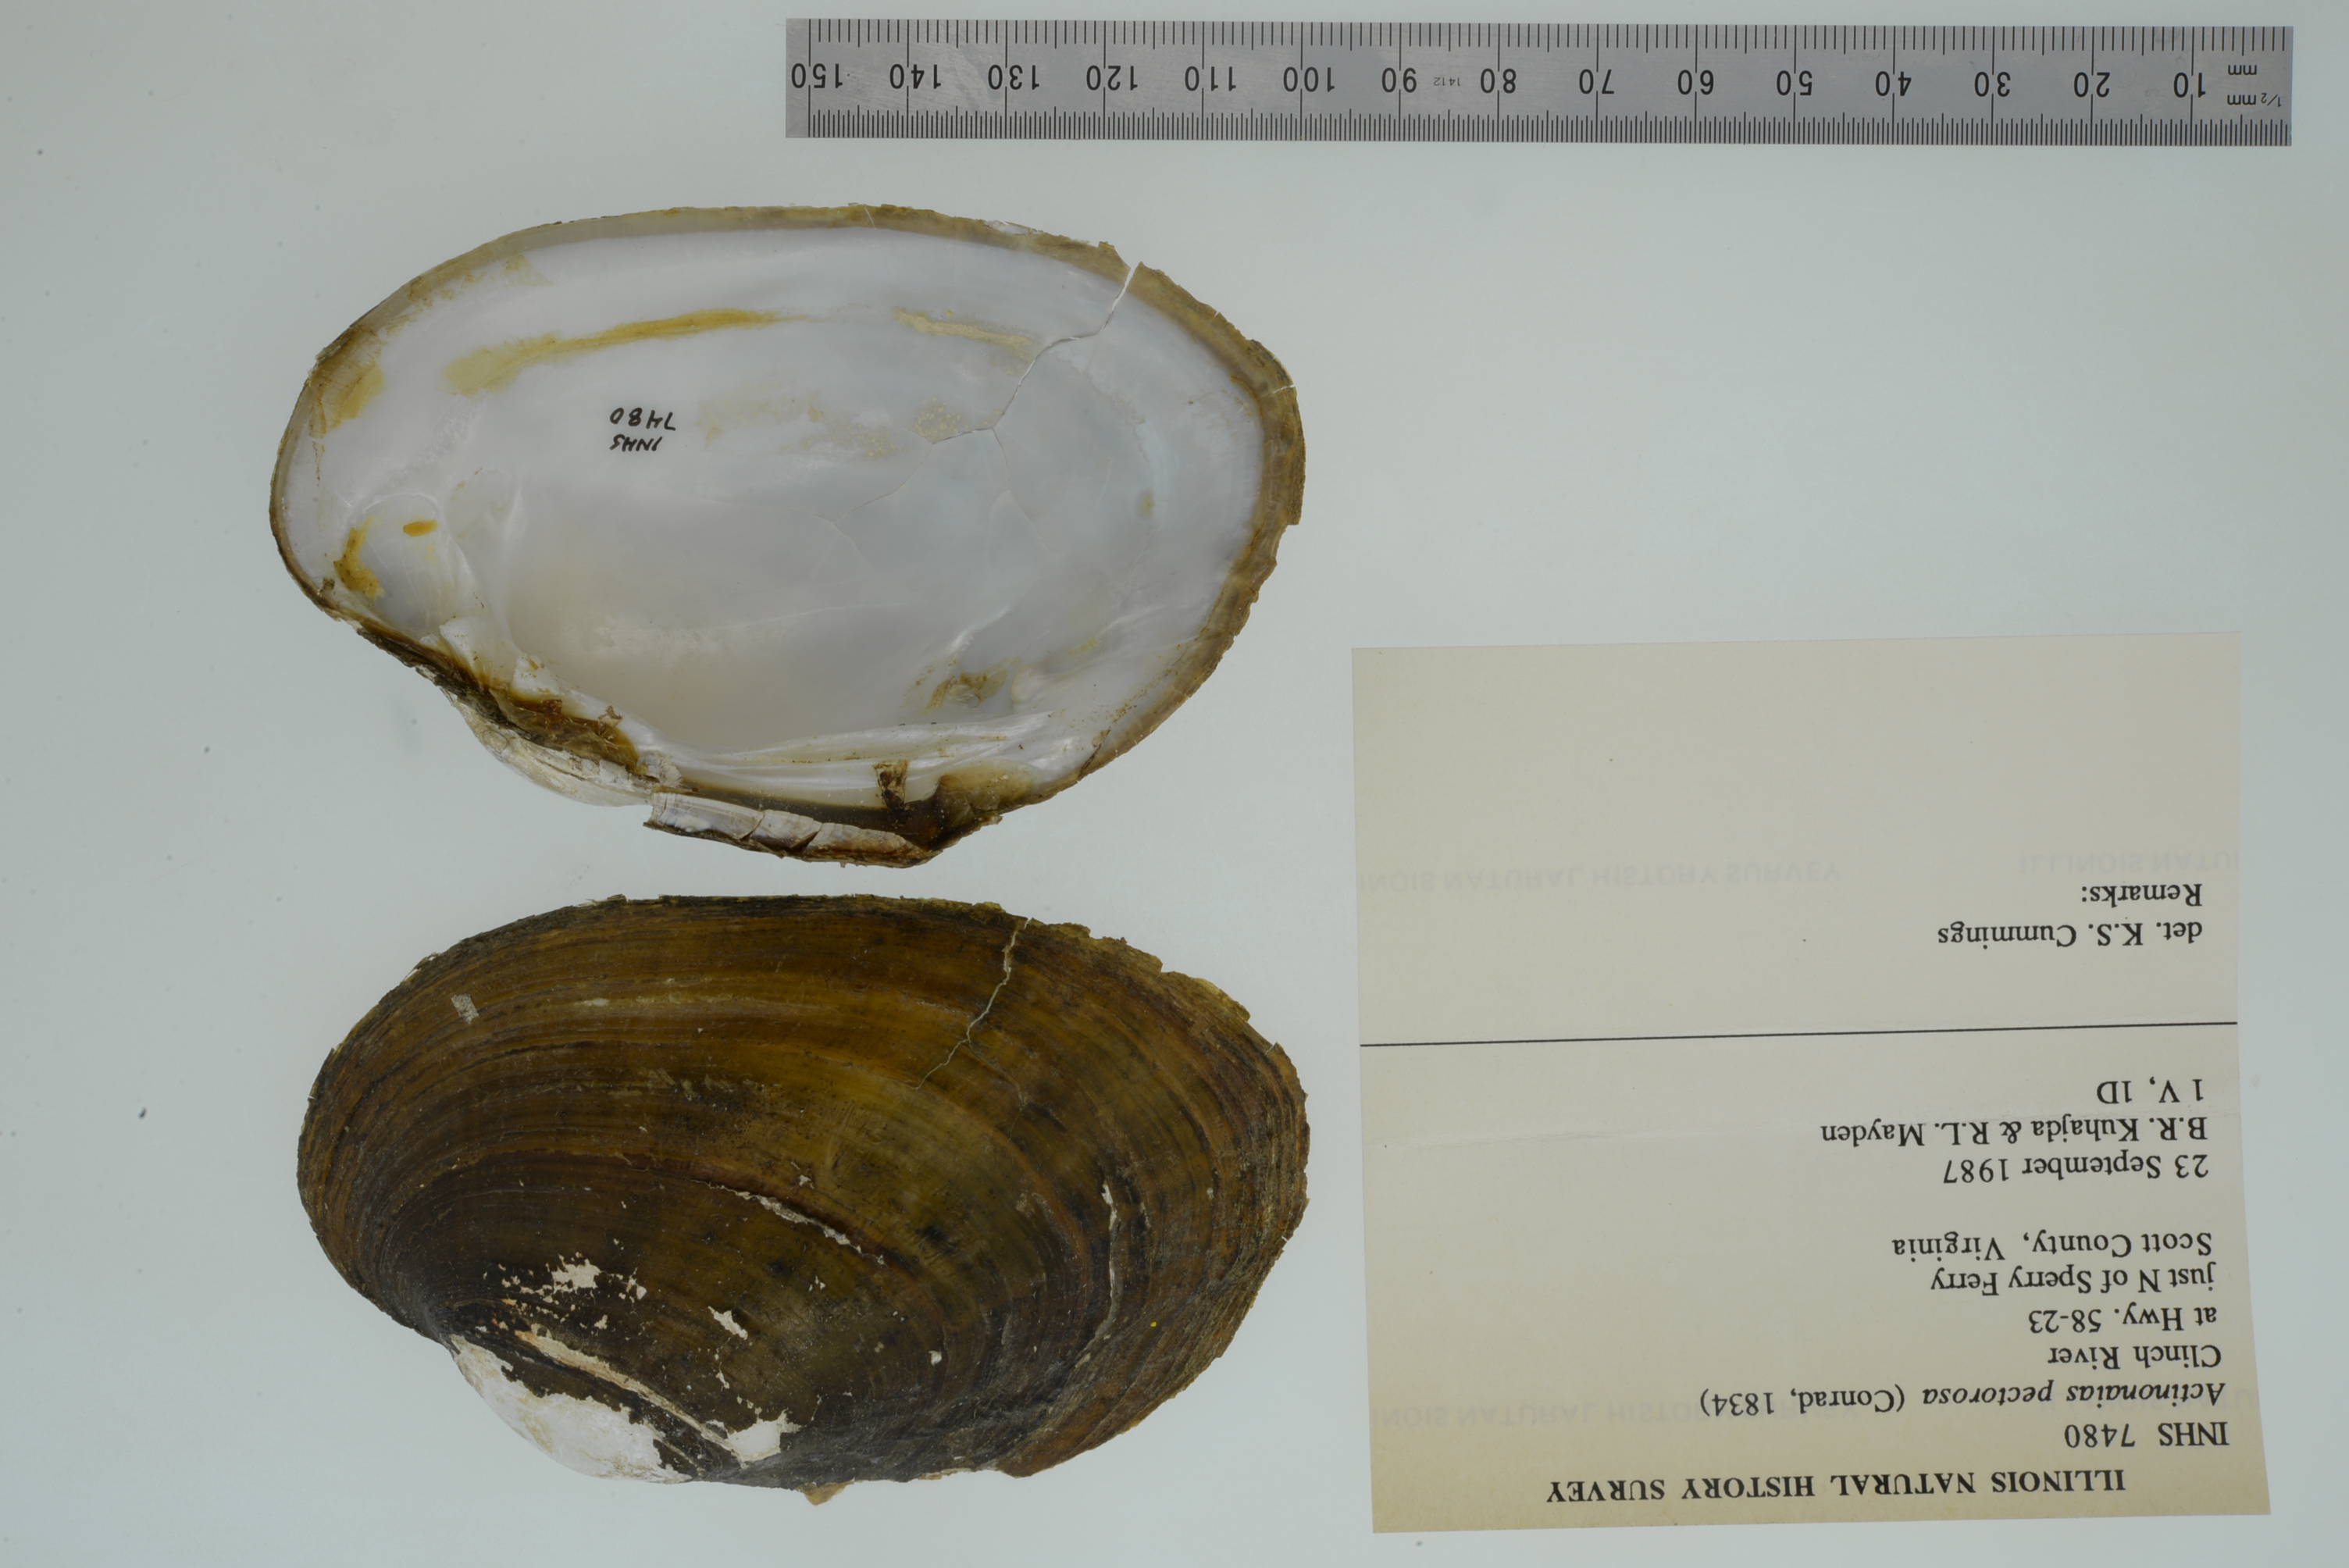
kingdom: Animalia
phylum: Mollusca
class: Bivalvia
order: Unionida
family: Unionidae
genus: Ortmanniana
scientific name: Ortmanniana pectorosa
